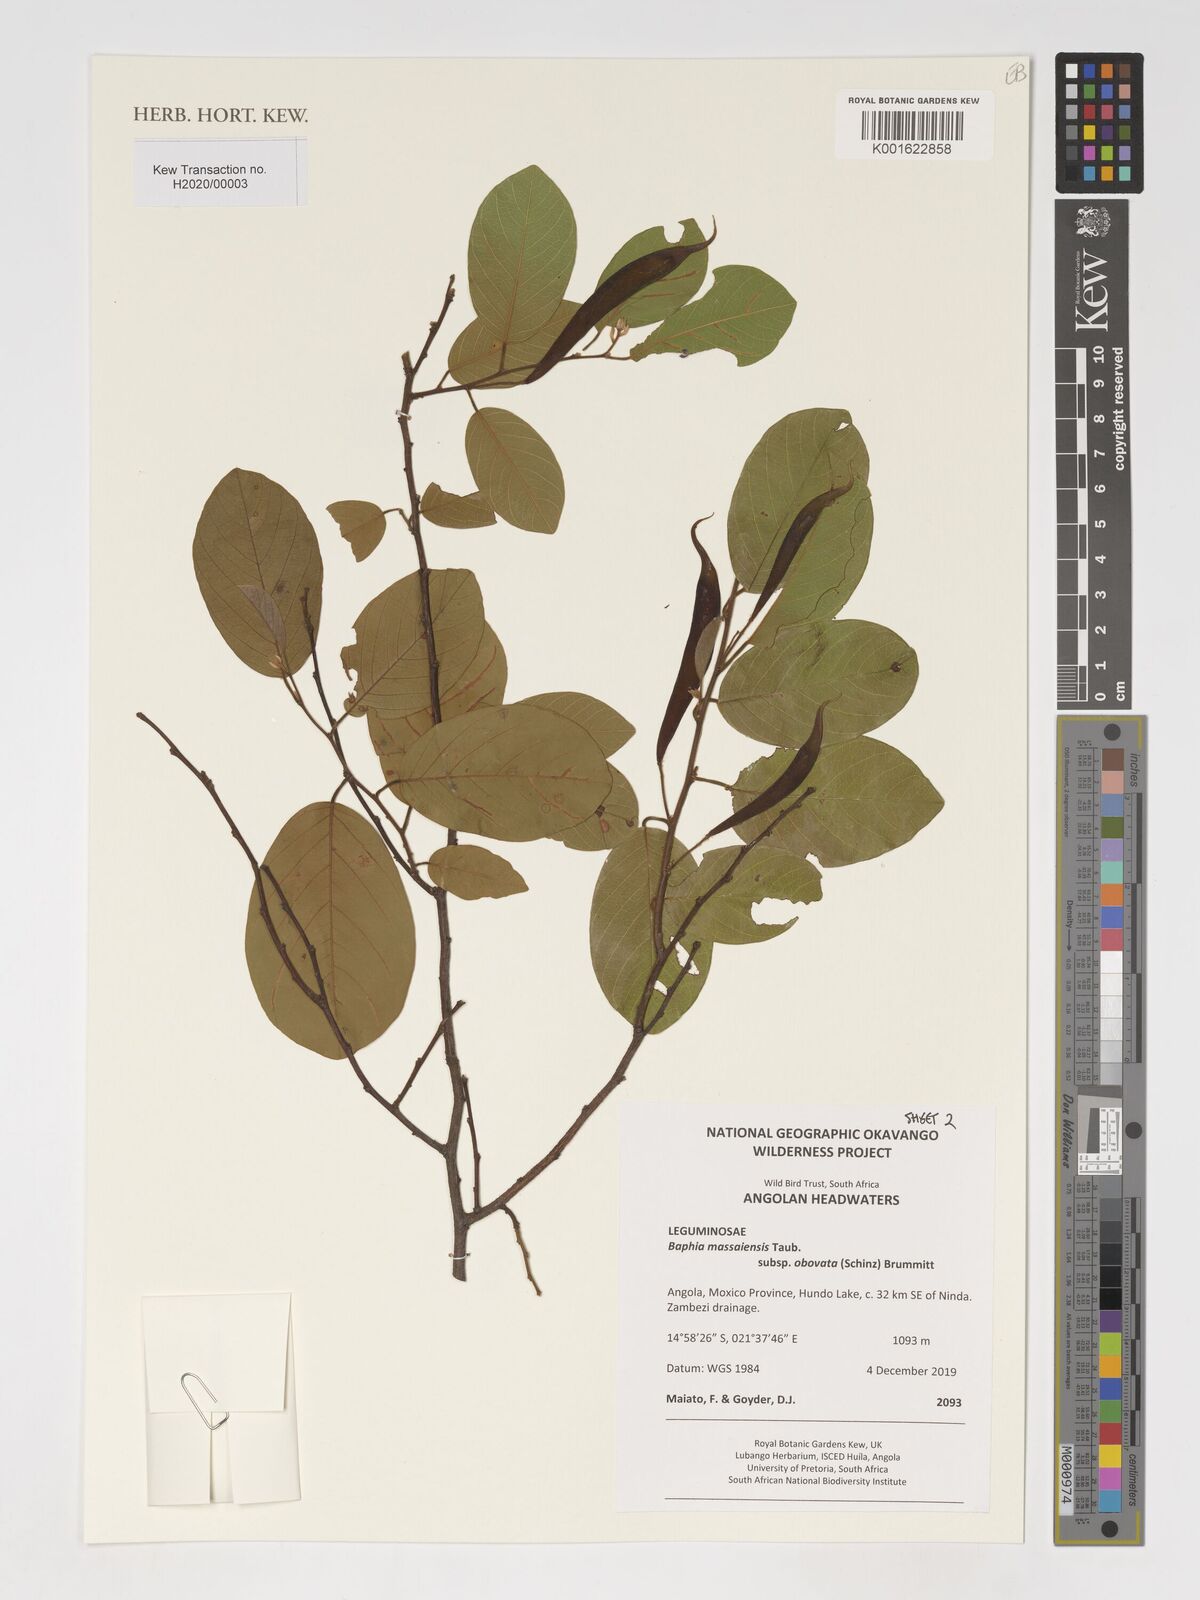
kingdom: Plantae
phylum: Tracheophyta
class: Magnoliopsida
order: Fabales
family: Fabaceae
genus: Baphia
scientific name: Baphia massaiensis
